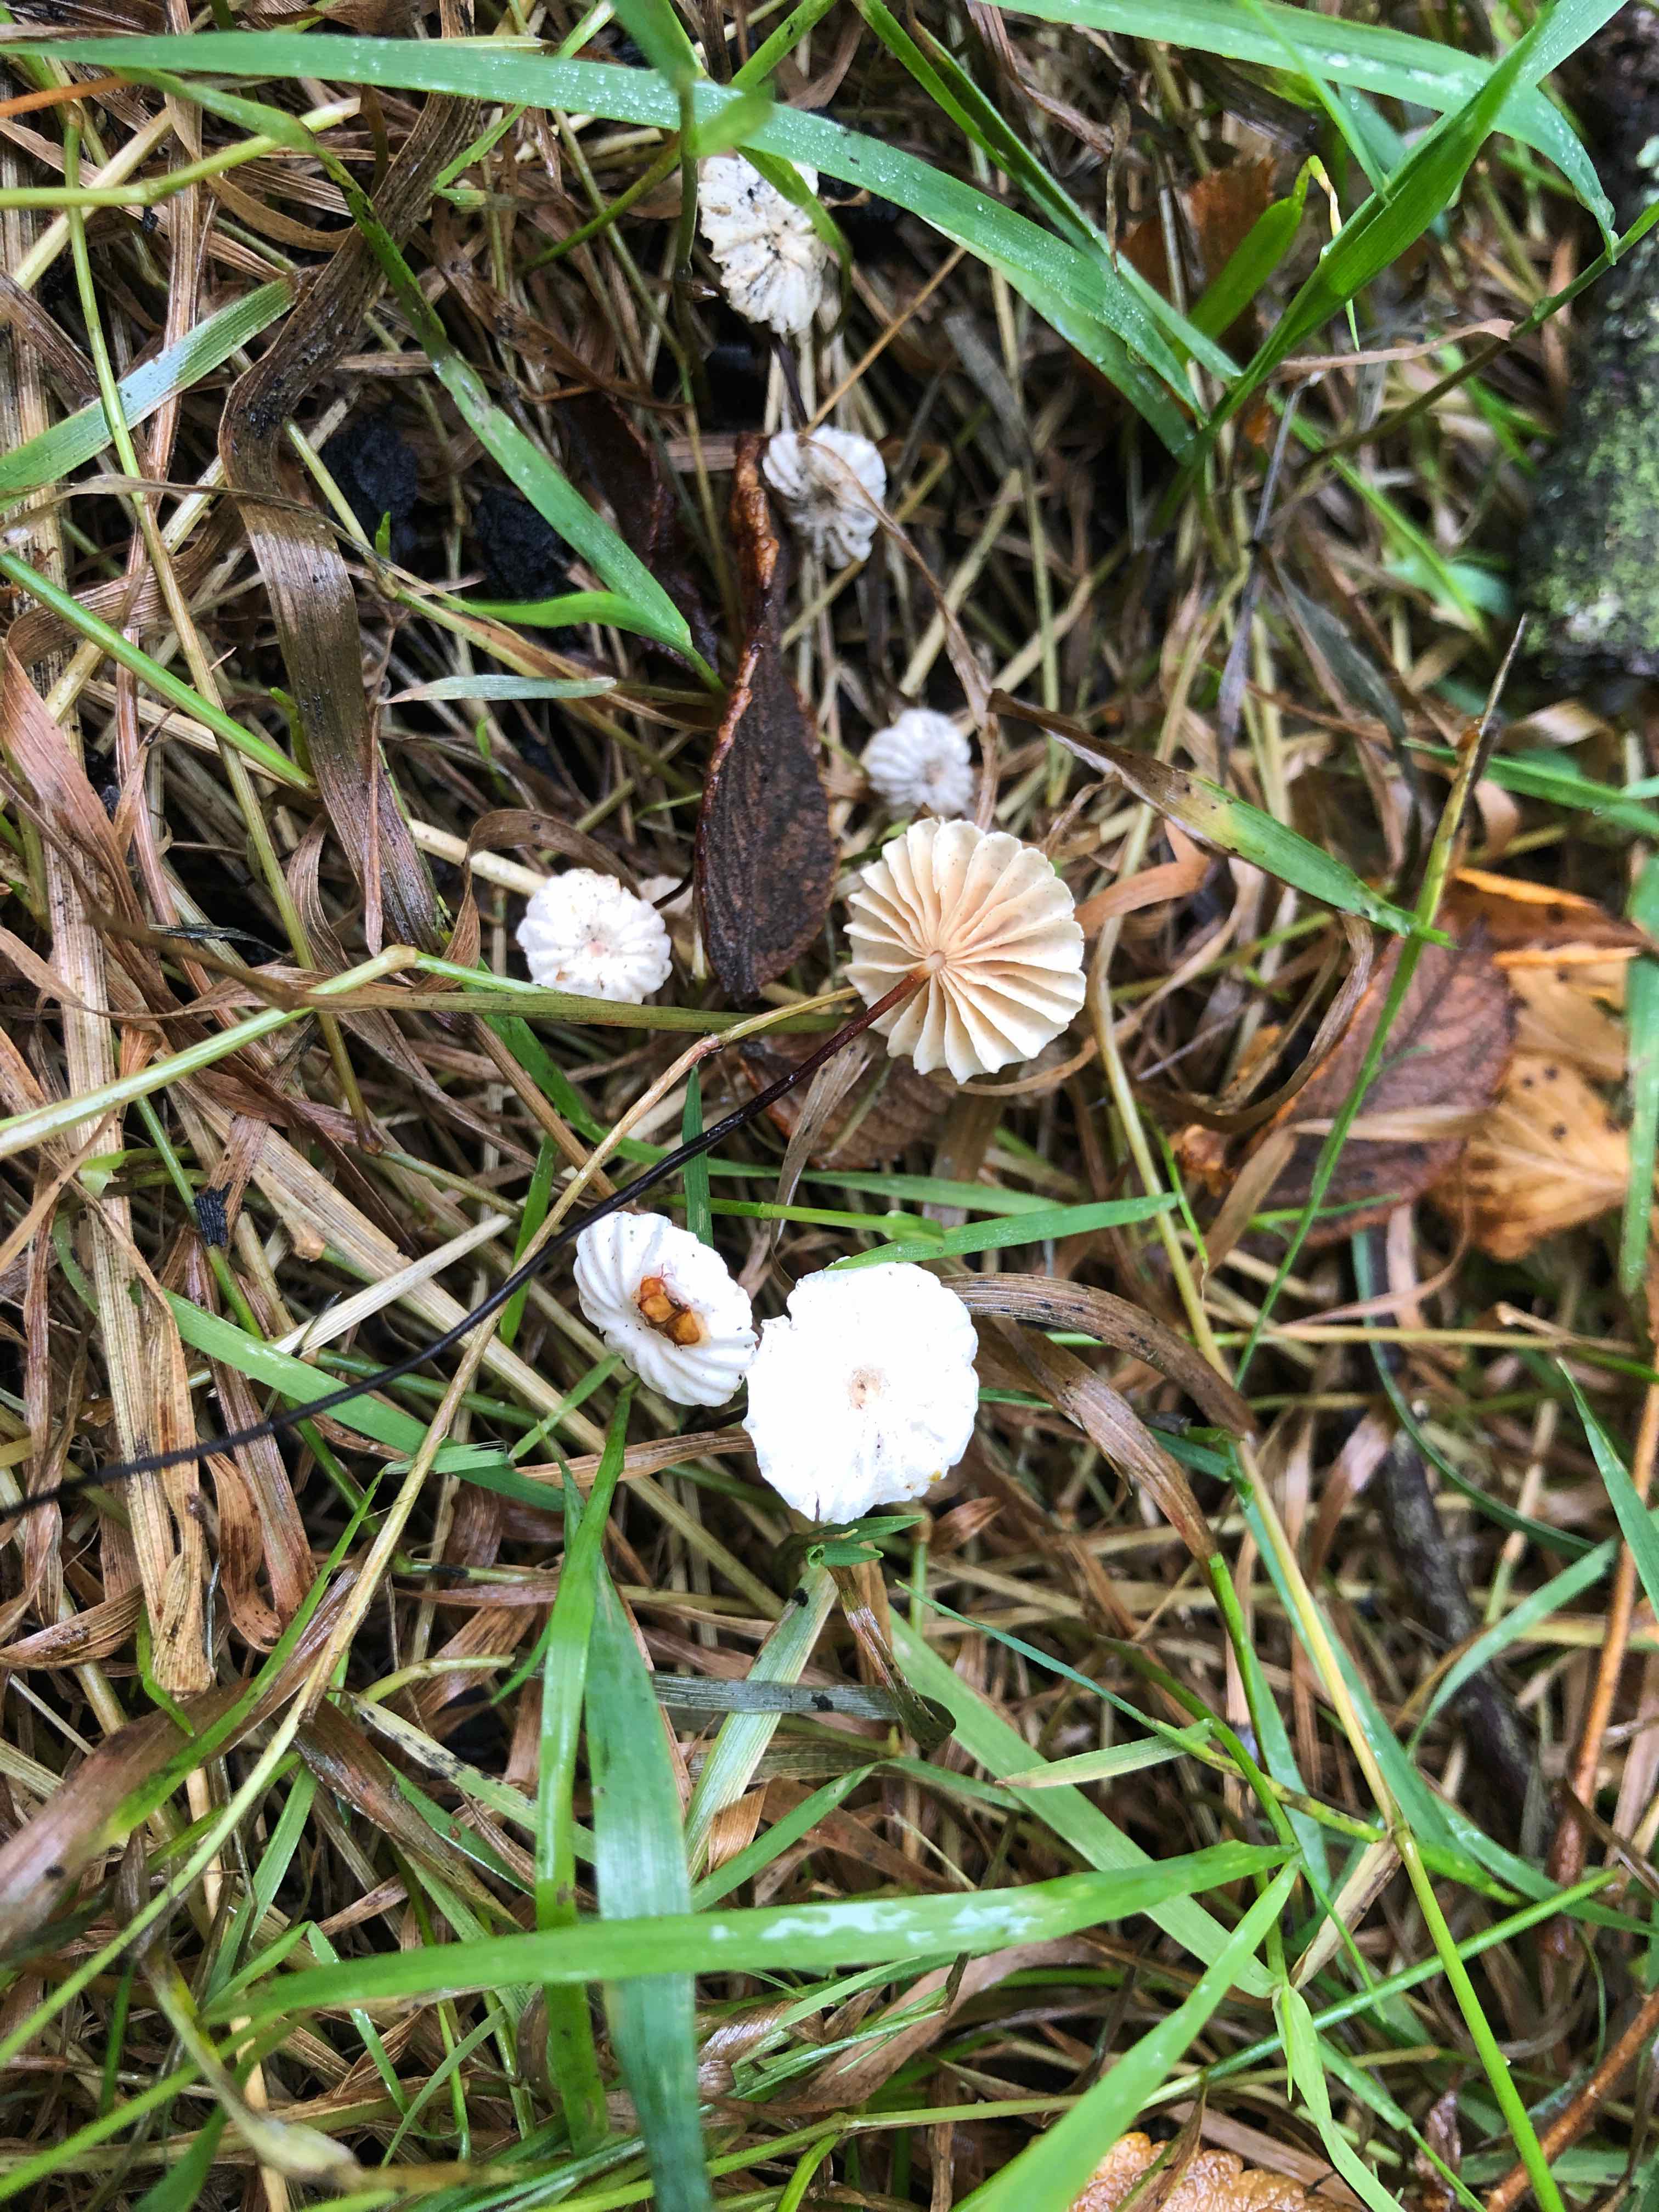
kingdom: Fungi
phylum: Basidiomycota
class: Agaricomycetes
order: Agaricales
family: Marasmiaceae
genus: Marasmius
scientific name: Marasmius rotula
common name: hjul-bruskhat
